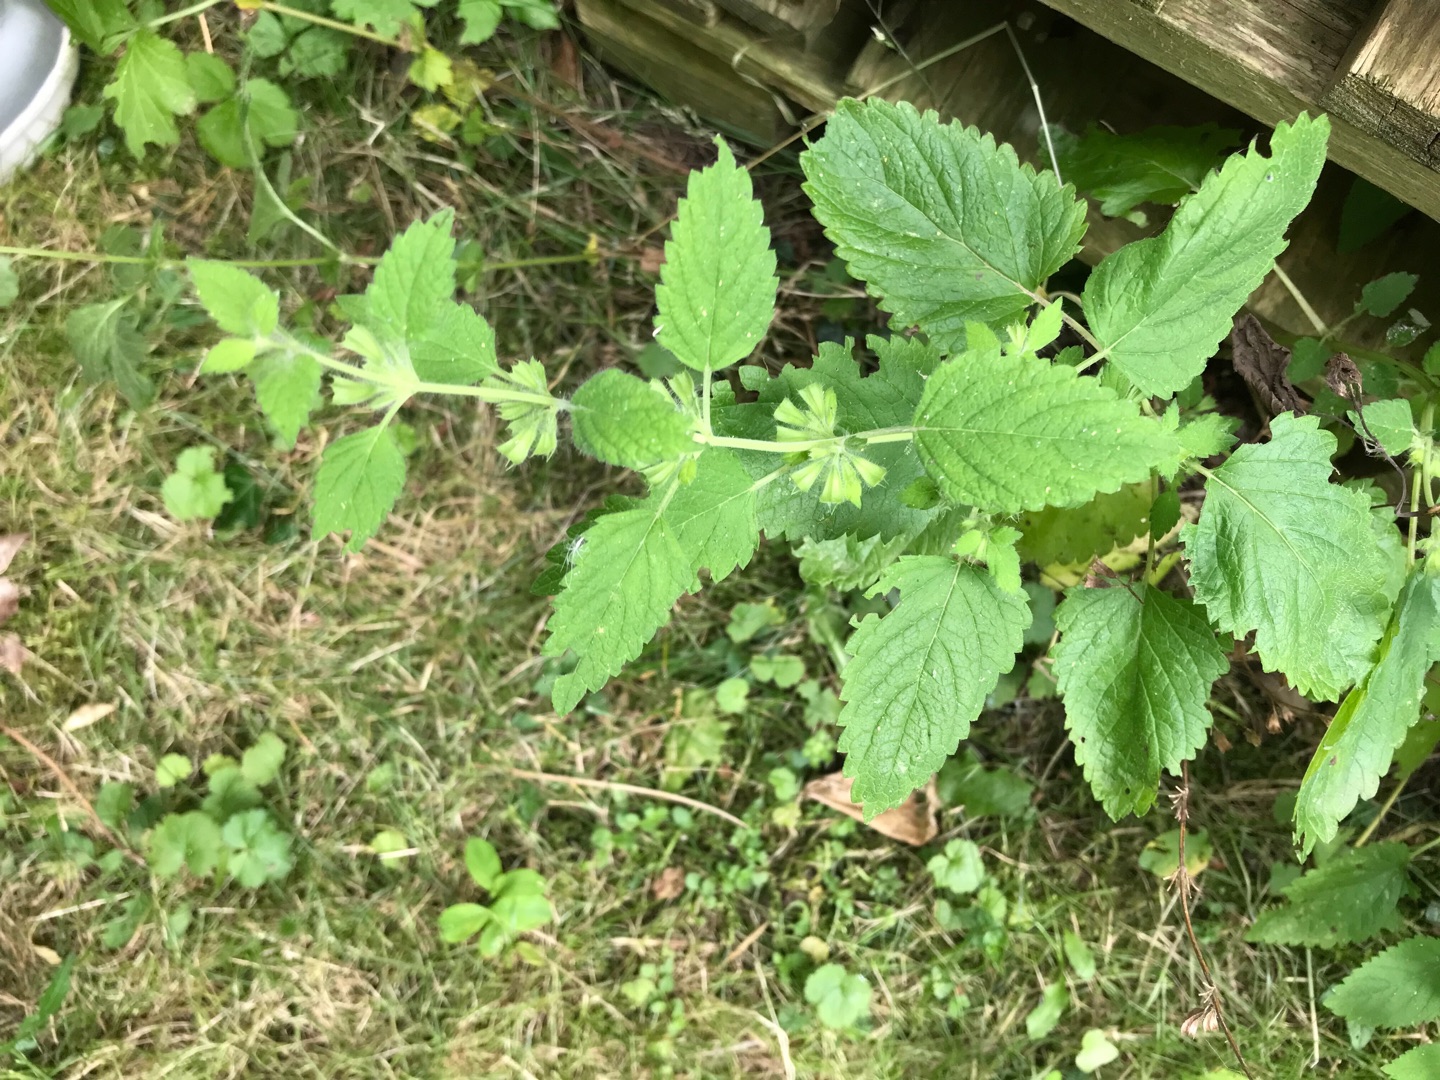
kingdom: Plantae
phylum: Tracheophyta
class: Magnoliopsida
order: Lamiales
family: Lamiaceae
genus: Melissa
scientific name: Melissa officinalis
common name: Citronmelisse
